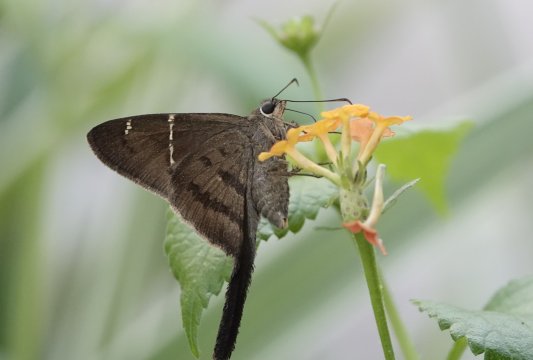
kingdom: Animalia
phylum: Arthropoda
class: Insecta
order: Lepidoptera
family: Hesperiidae
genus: Urbanus
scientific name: Urbanus procne
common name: Brown Longtail
